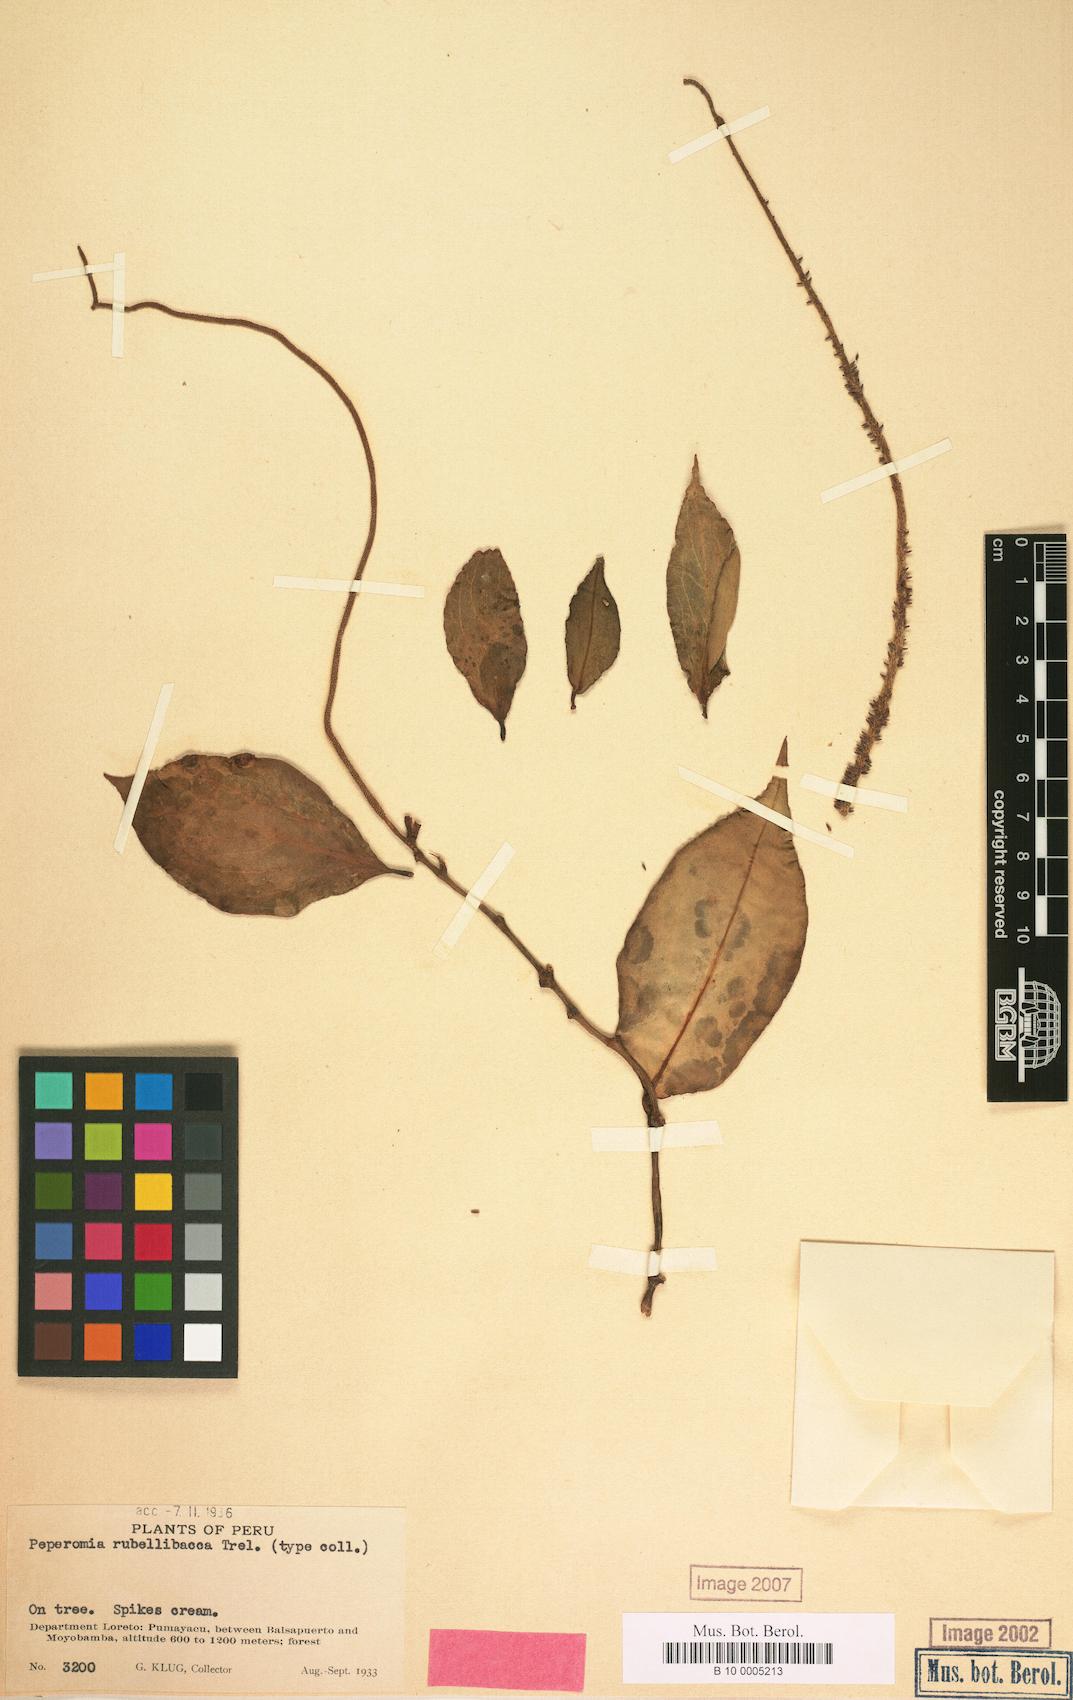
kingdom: Plantae
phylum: Tracheophyta
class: Magnoliopsida
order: Piperales
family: Piperaceae
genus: Peperomia
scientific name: Peperomia
